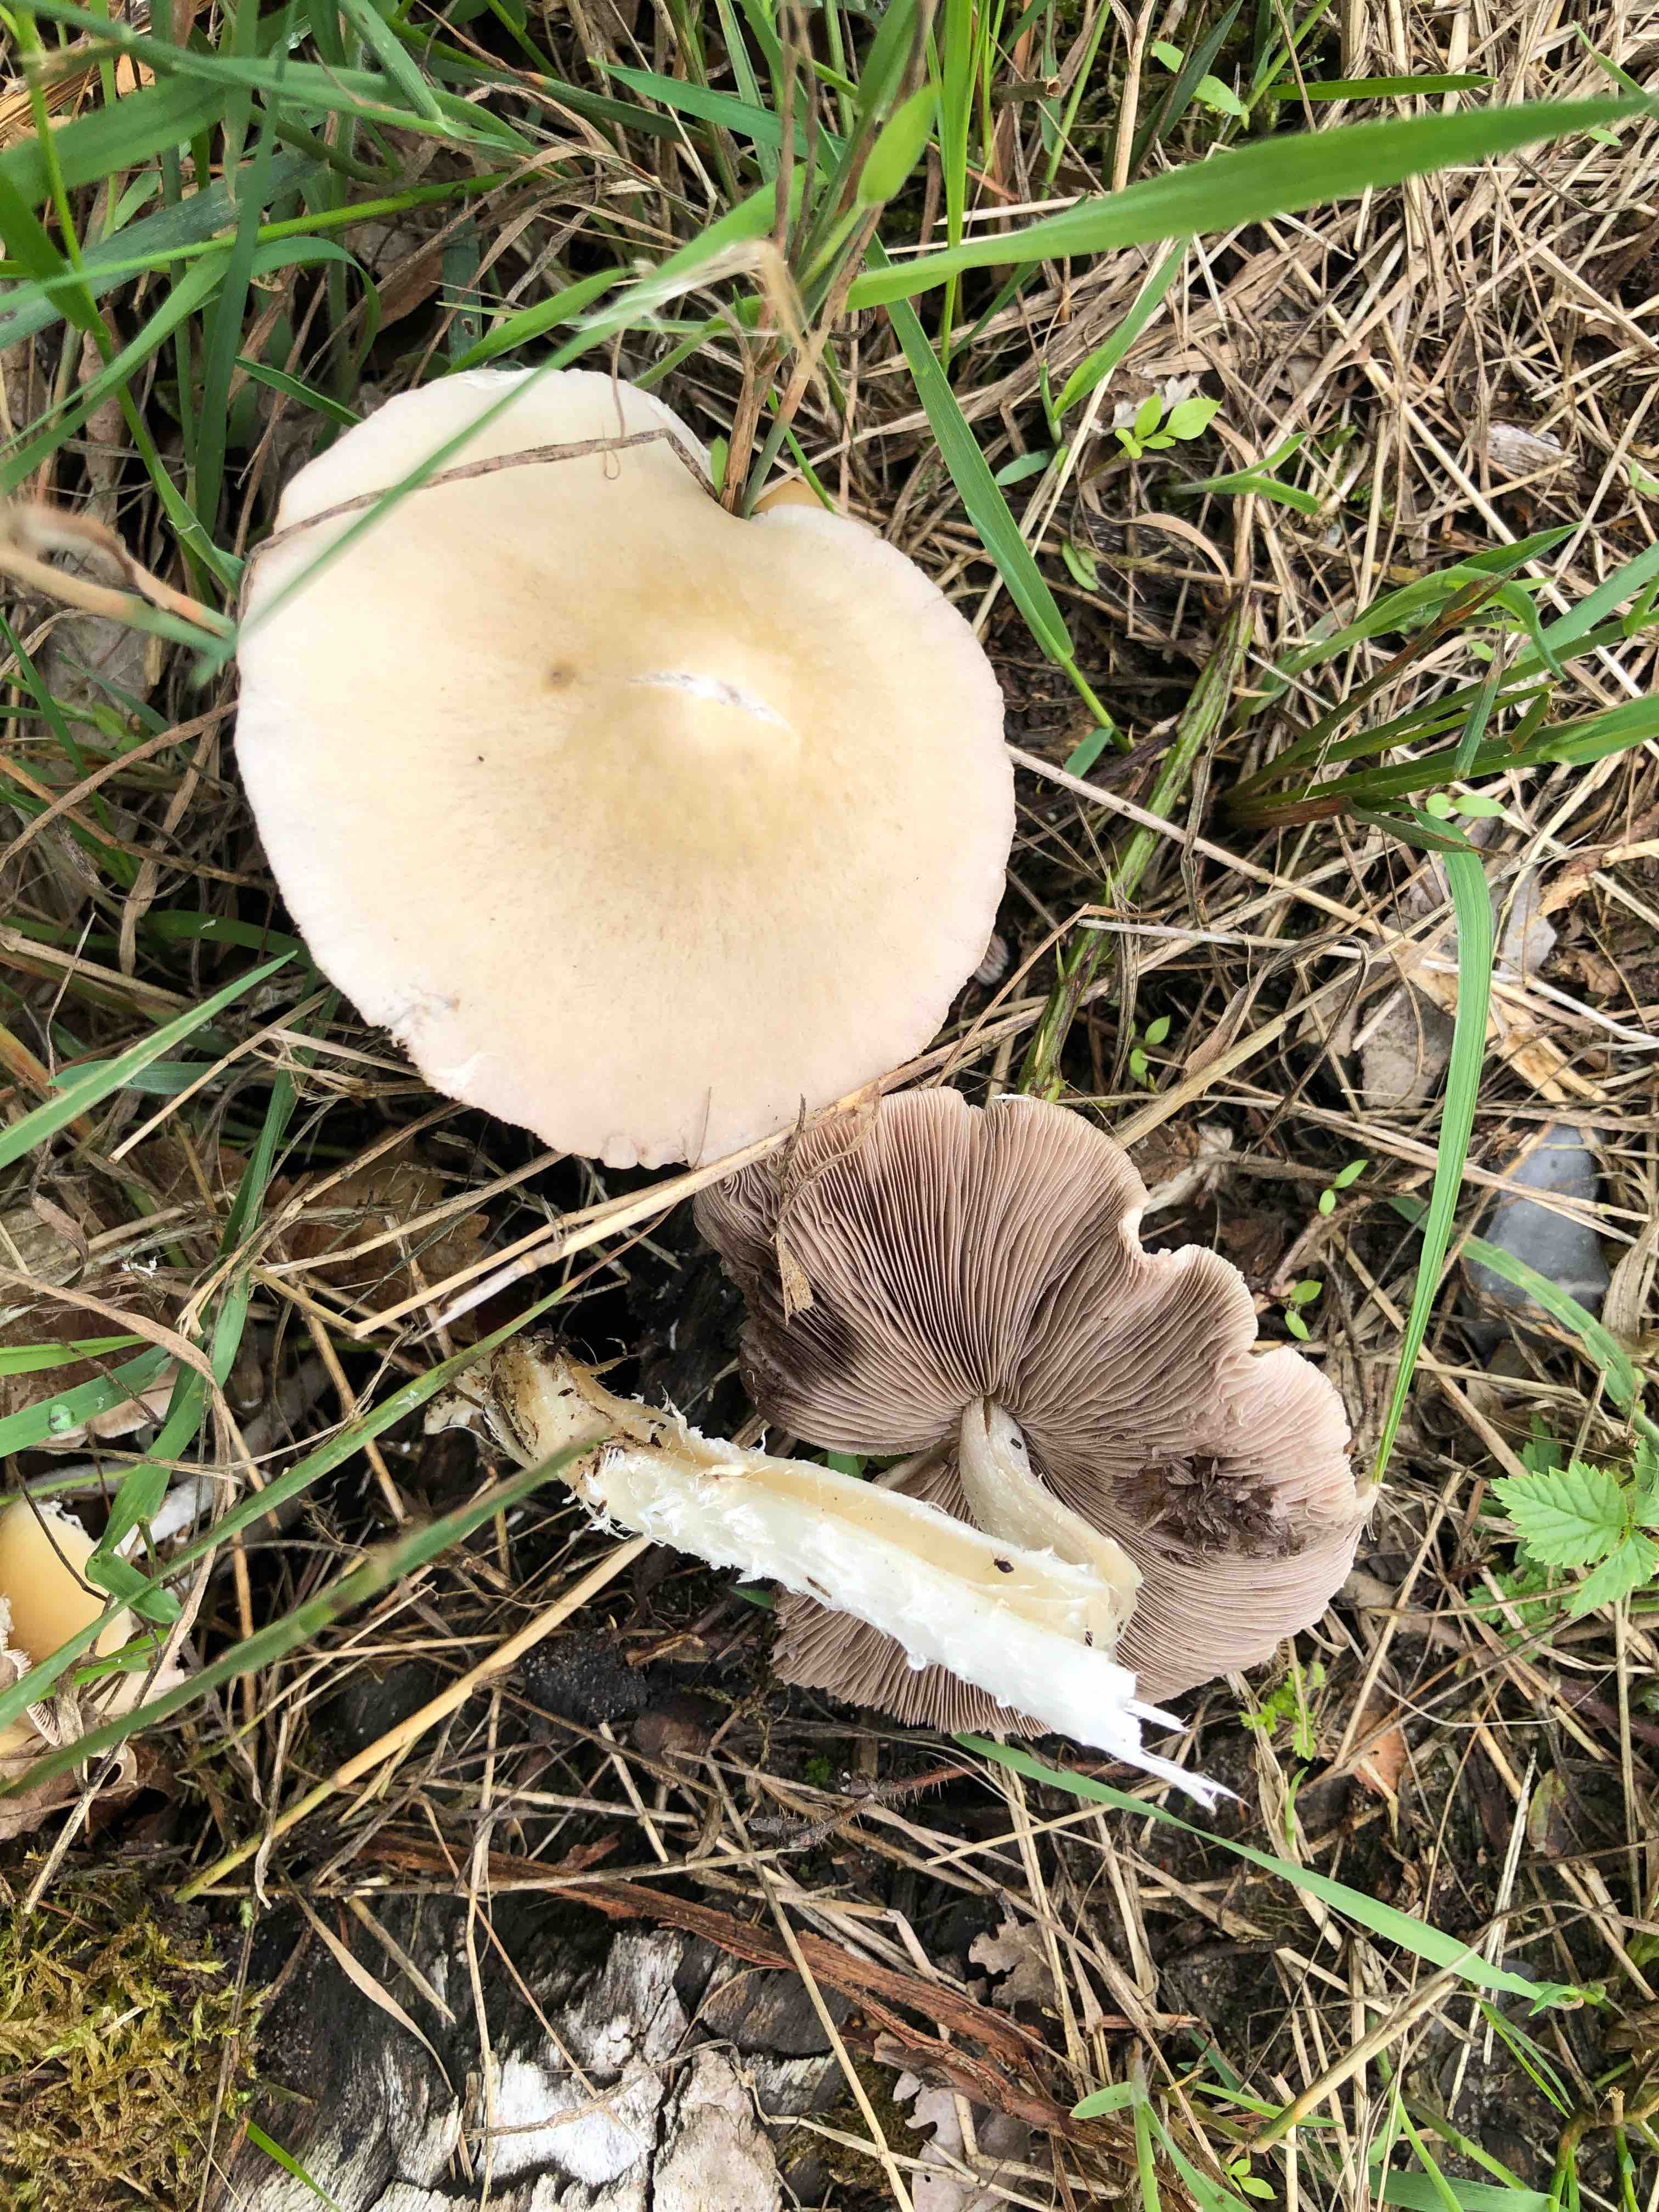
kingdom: Fungi
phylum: Basidiomycota
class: Agaricomycetes
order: Agaricales
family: Psathyrellaceae
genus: Candolleomyces
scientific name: Candolleomyces candolleanus
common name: Candolles mørkhat
